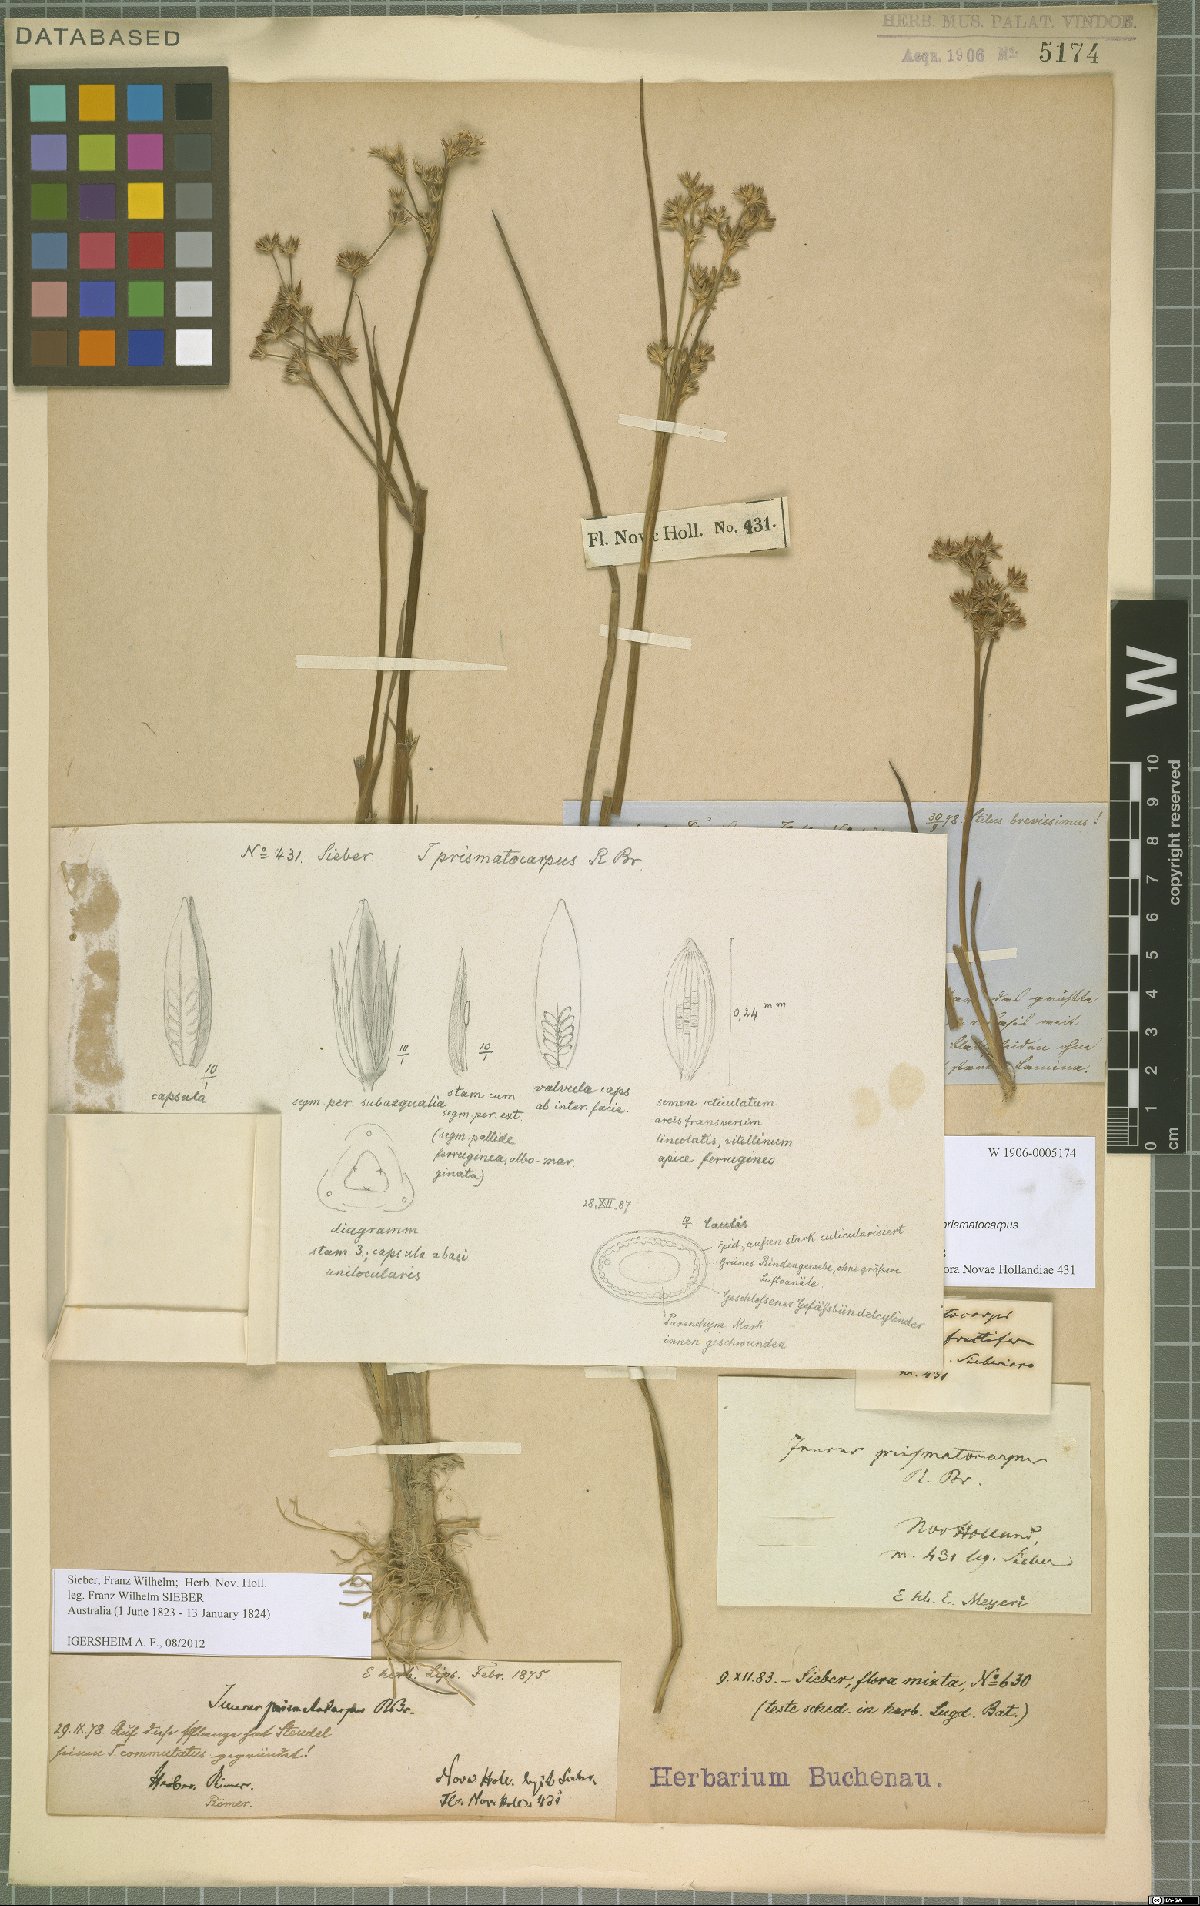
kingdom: Plantae
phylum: Tracheophyta
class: Liliopsida
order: Poales
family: Juncaceae
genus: Juncus
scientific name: Juncus prismatocarpus
